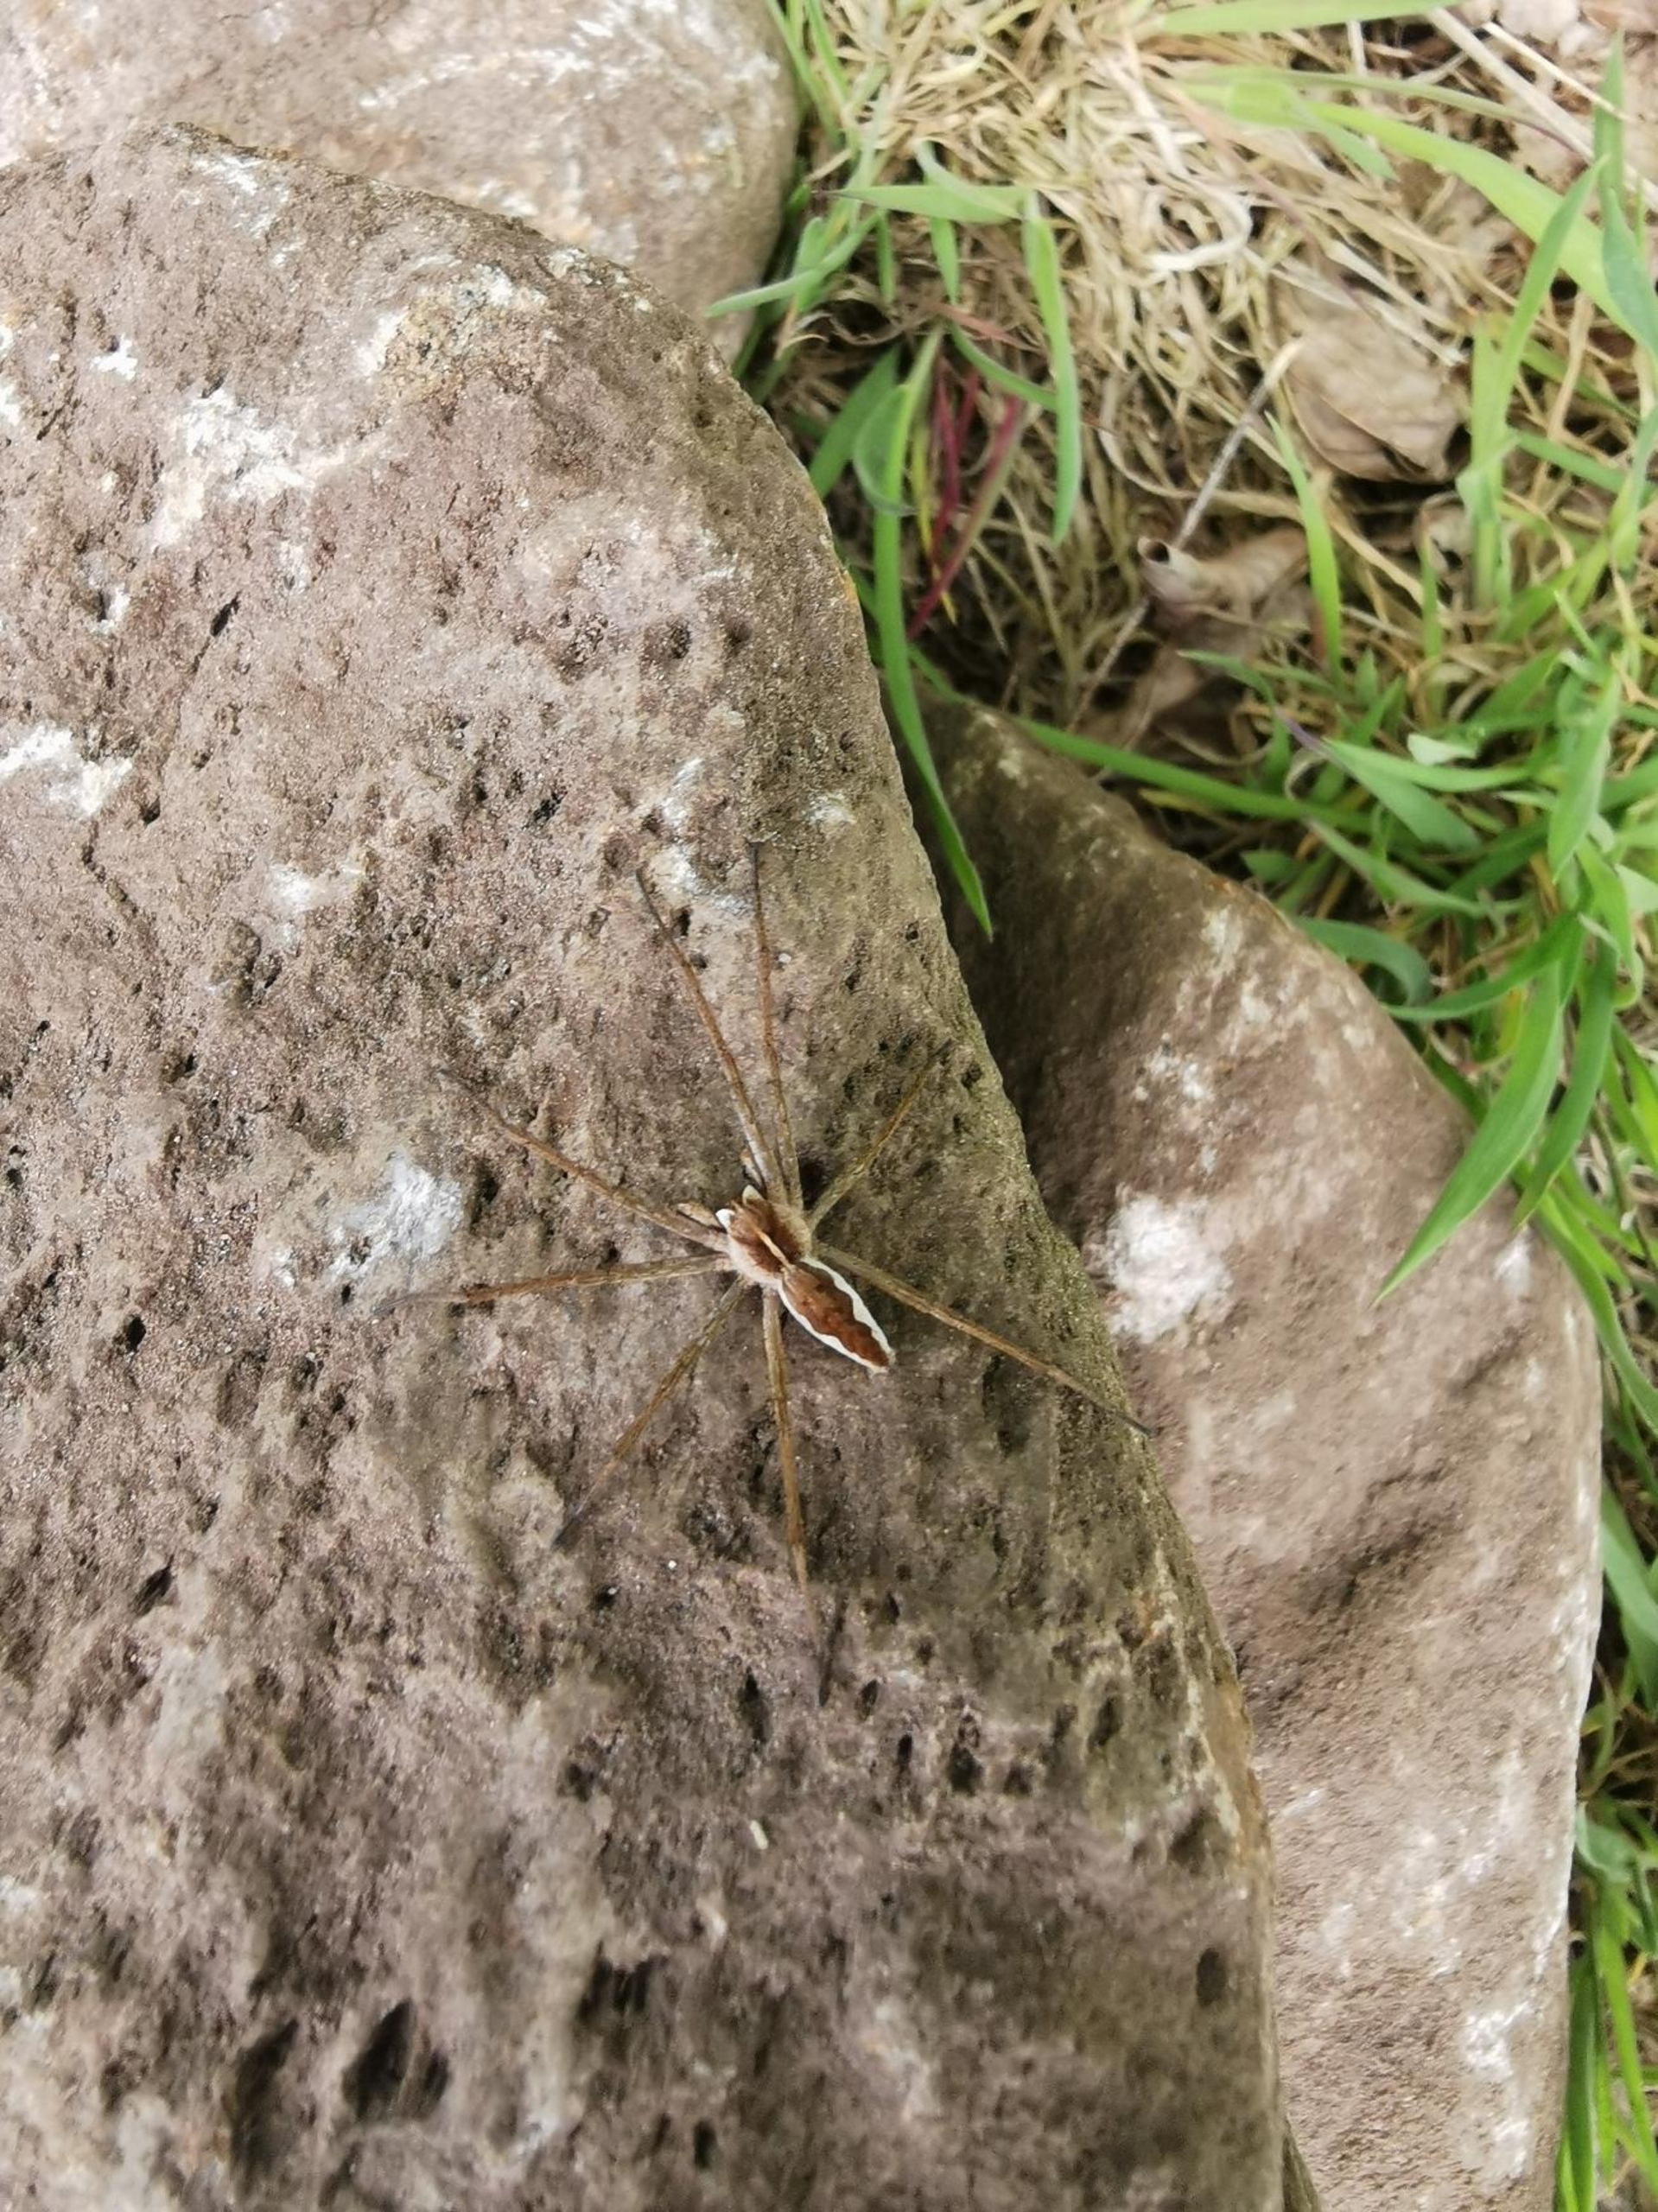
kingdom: Animalia
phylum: Arthropoda
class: Arachnida
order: Araneae
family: Pisauridae
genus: Pisaura
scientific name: Pisaura mirabilis
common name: Almindelig rovedderkop
